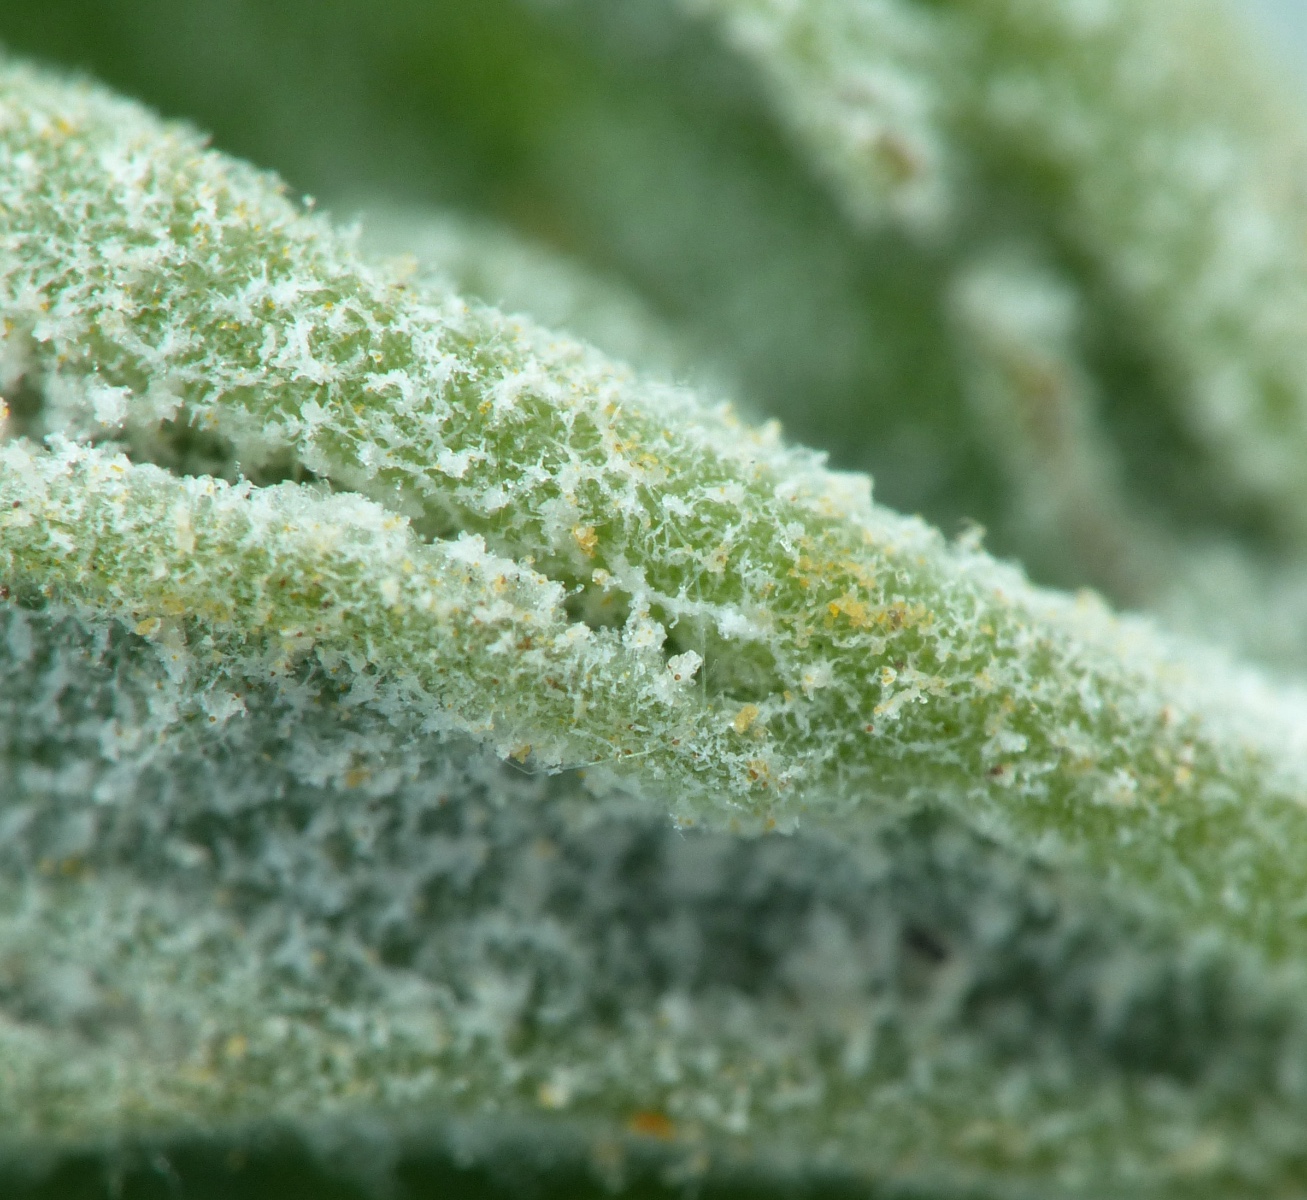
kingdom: Fungi
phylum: Ascomycota
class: Leotiomycetes
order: Helotiales
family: Erysiphaceae
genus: Podosphaera
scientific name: Podosphaera filipendulae
